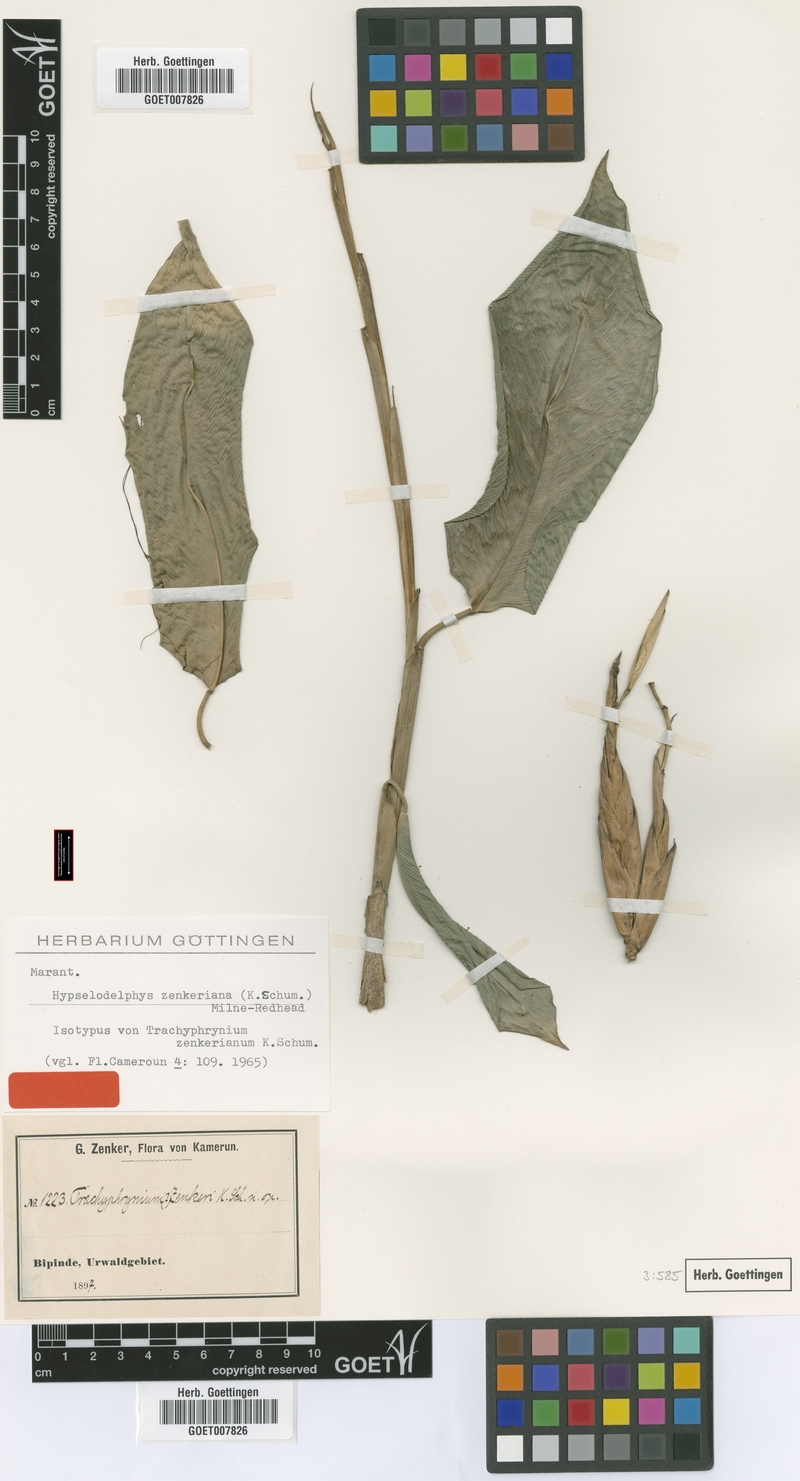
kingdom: Plantae
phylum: Tracheophyta
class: Liliopsida
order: Zingiberales
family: Marantaceae
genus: Hypselodelphys
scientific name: Hypselodelphys zenkeriana
